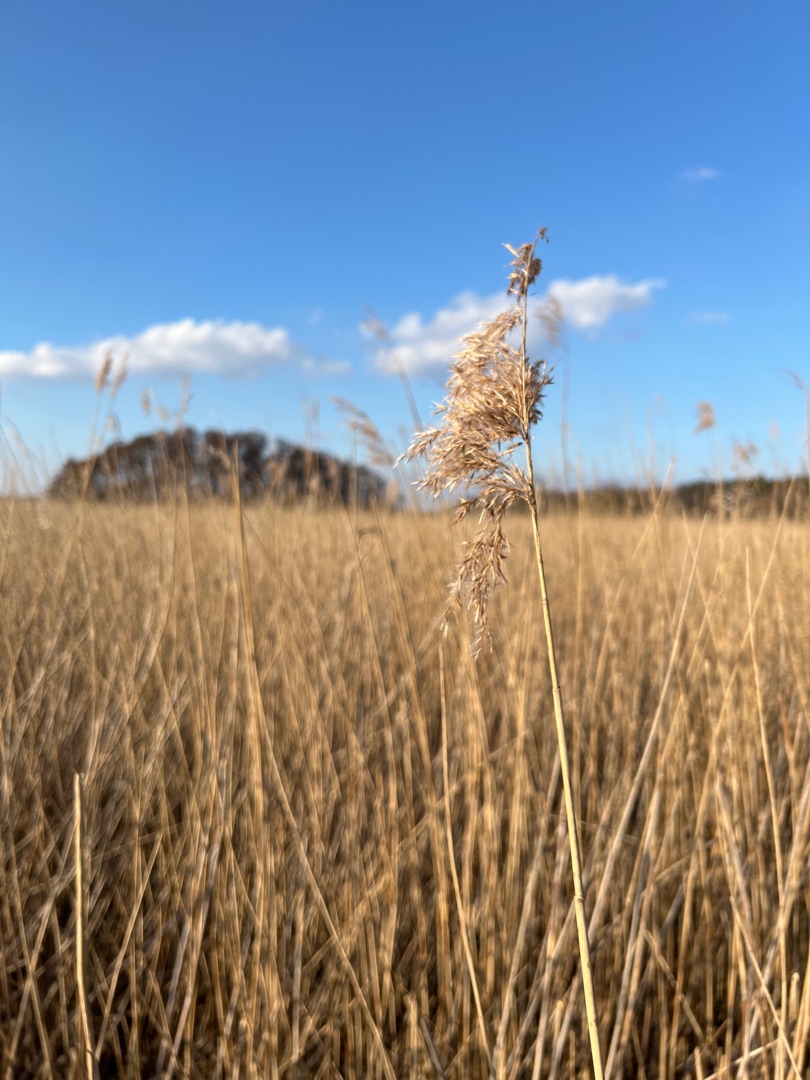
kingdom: Plantae
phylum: Tracheophyta
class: Liliopsida
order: Poales
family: Poaceae
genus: Phragmites
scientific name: Phragmites australis
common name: Tagrør
